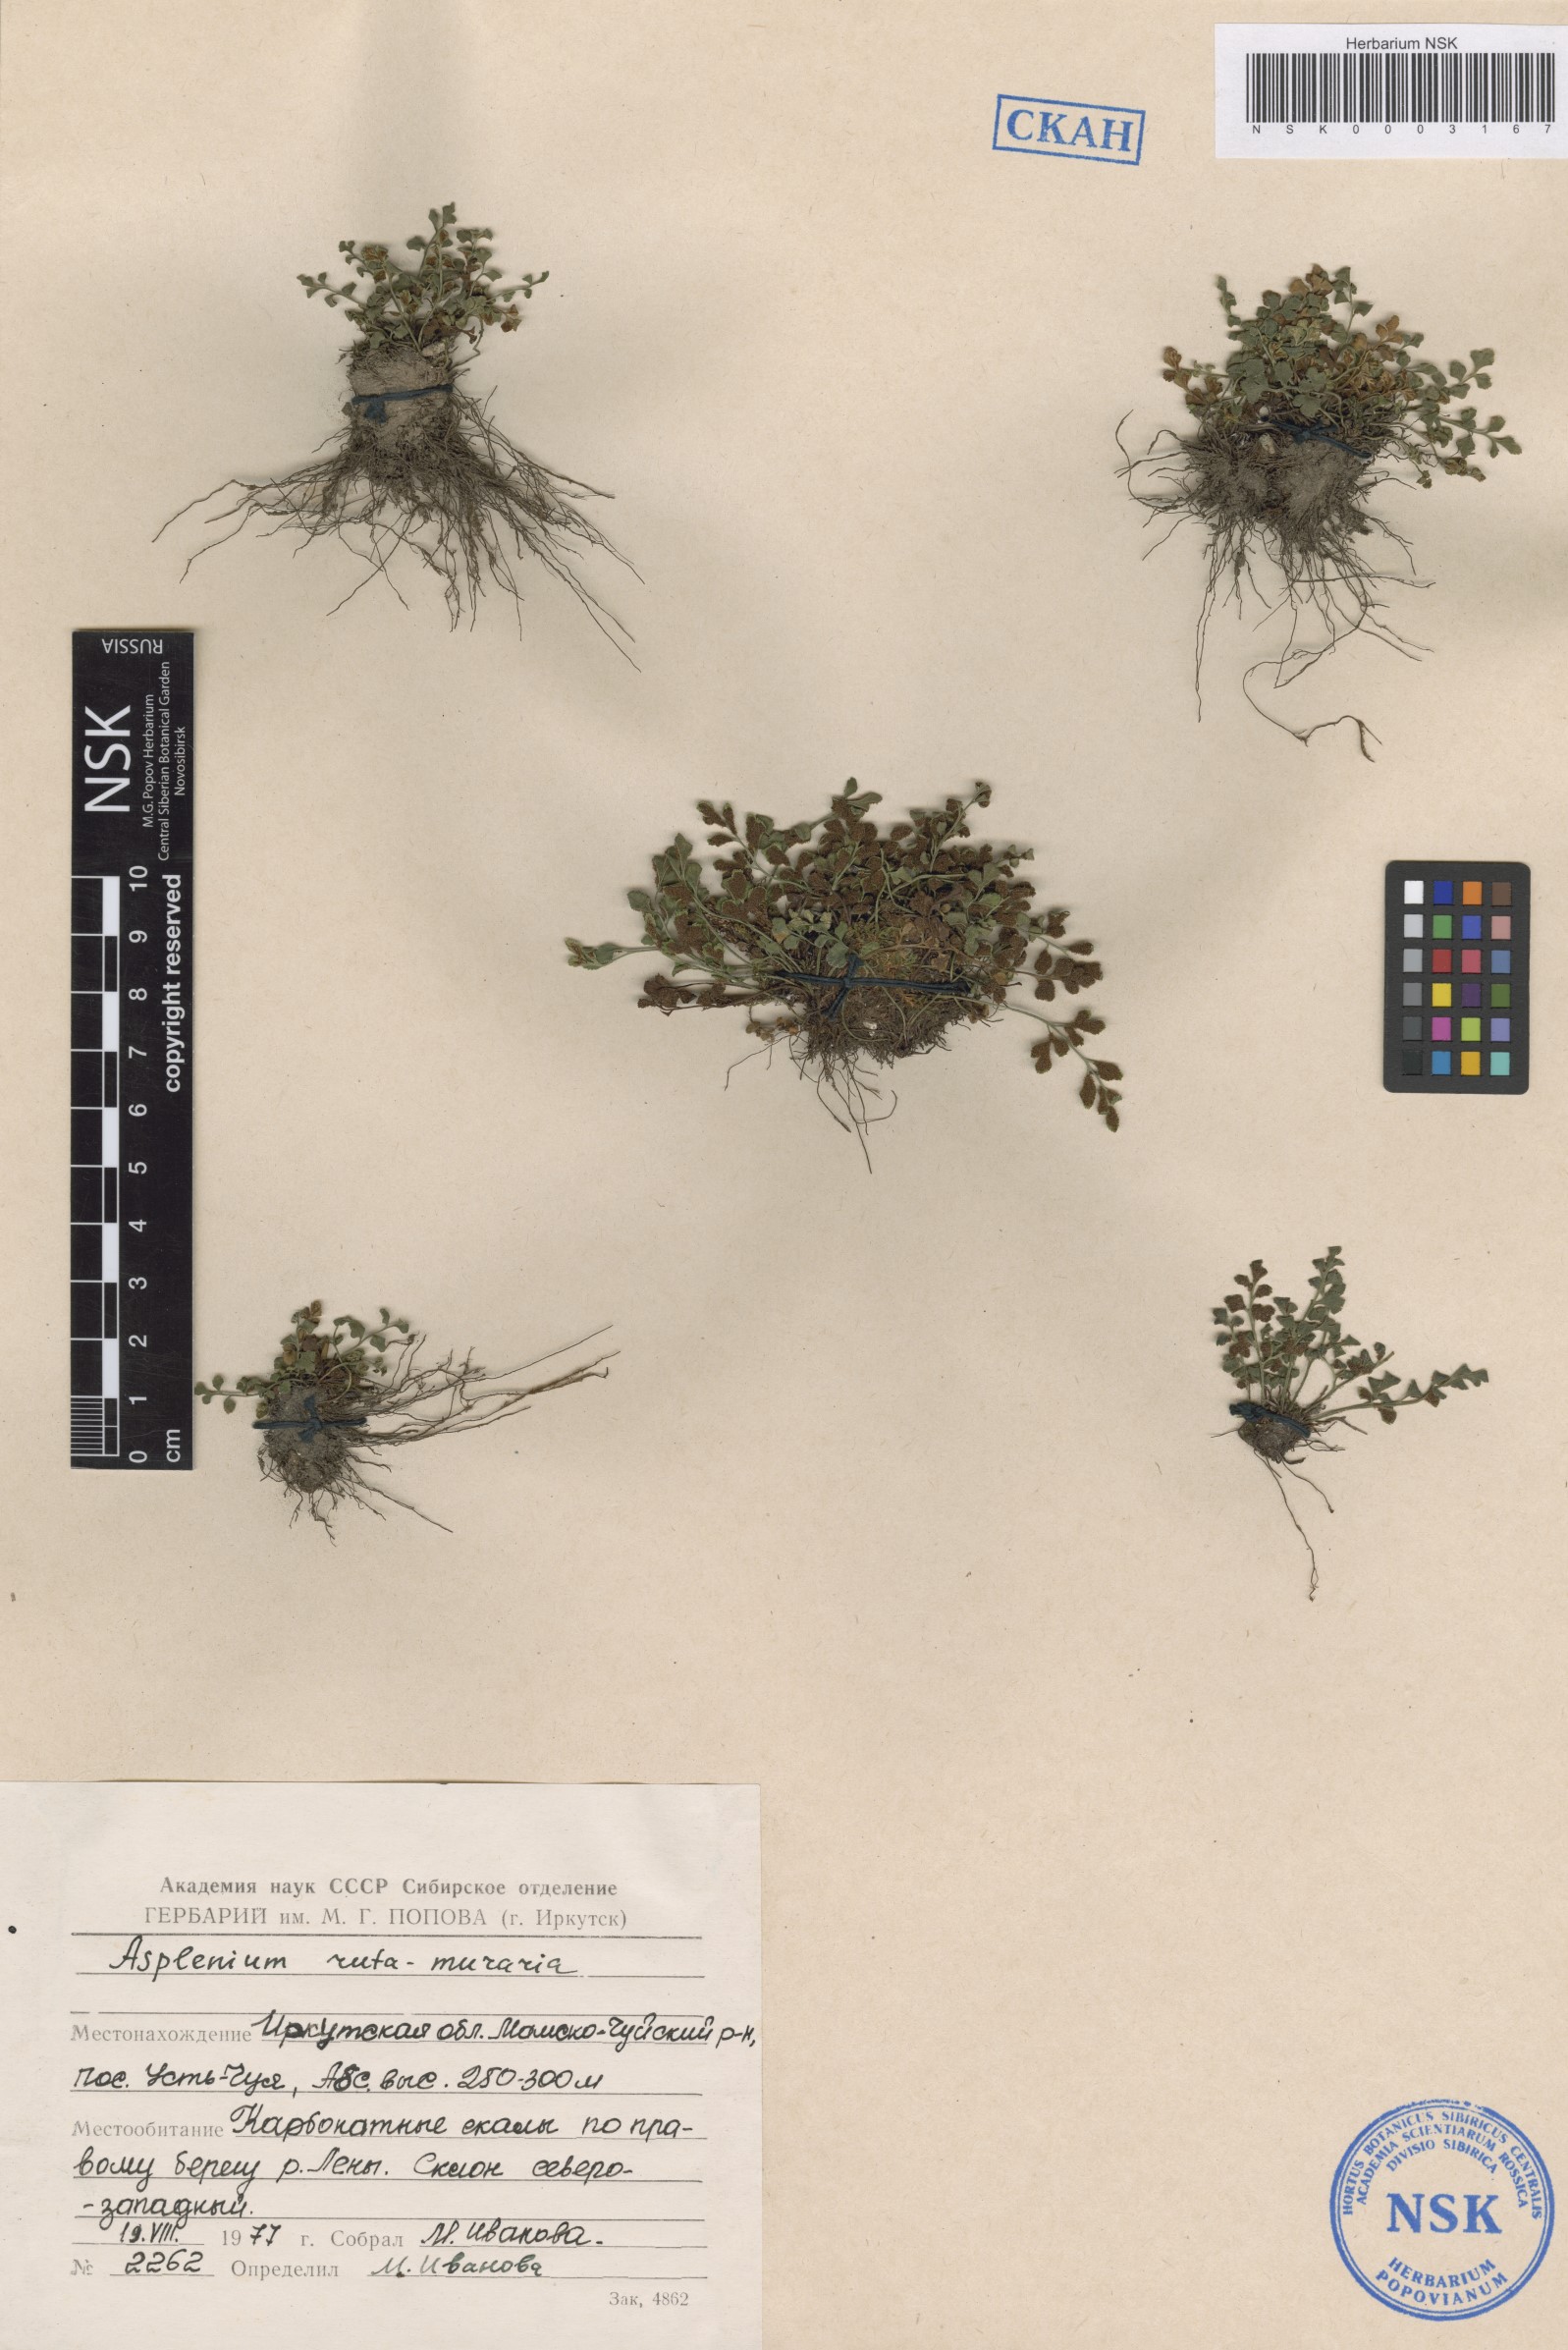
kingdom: Plantae
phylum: Tracheophyta
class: Polypodiopsida
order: Polypodiales
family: Aspleniaceae
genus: Asplenium
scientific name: Asplenium ruta-muraria
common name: Wall-rue
